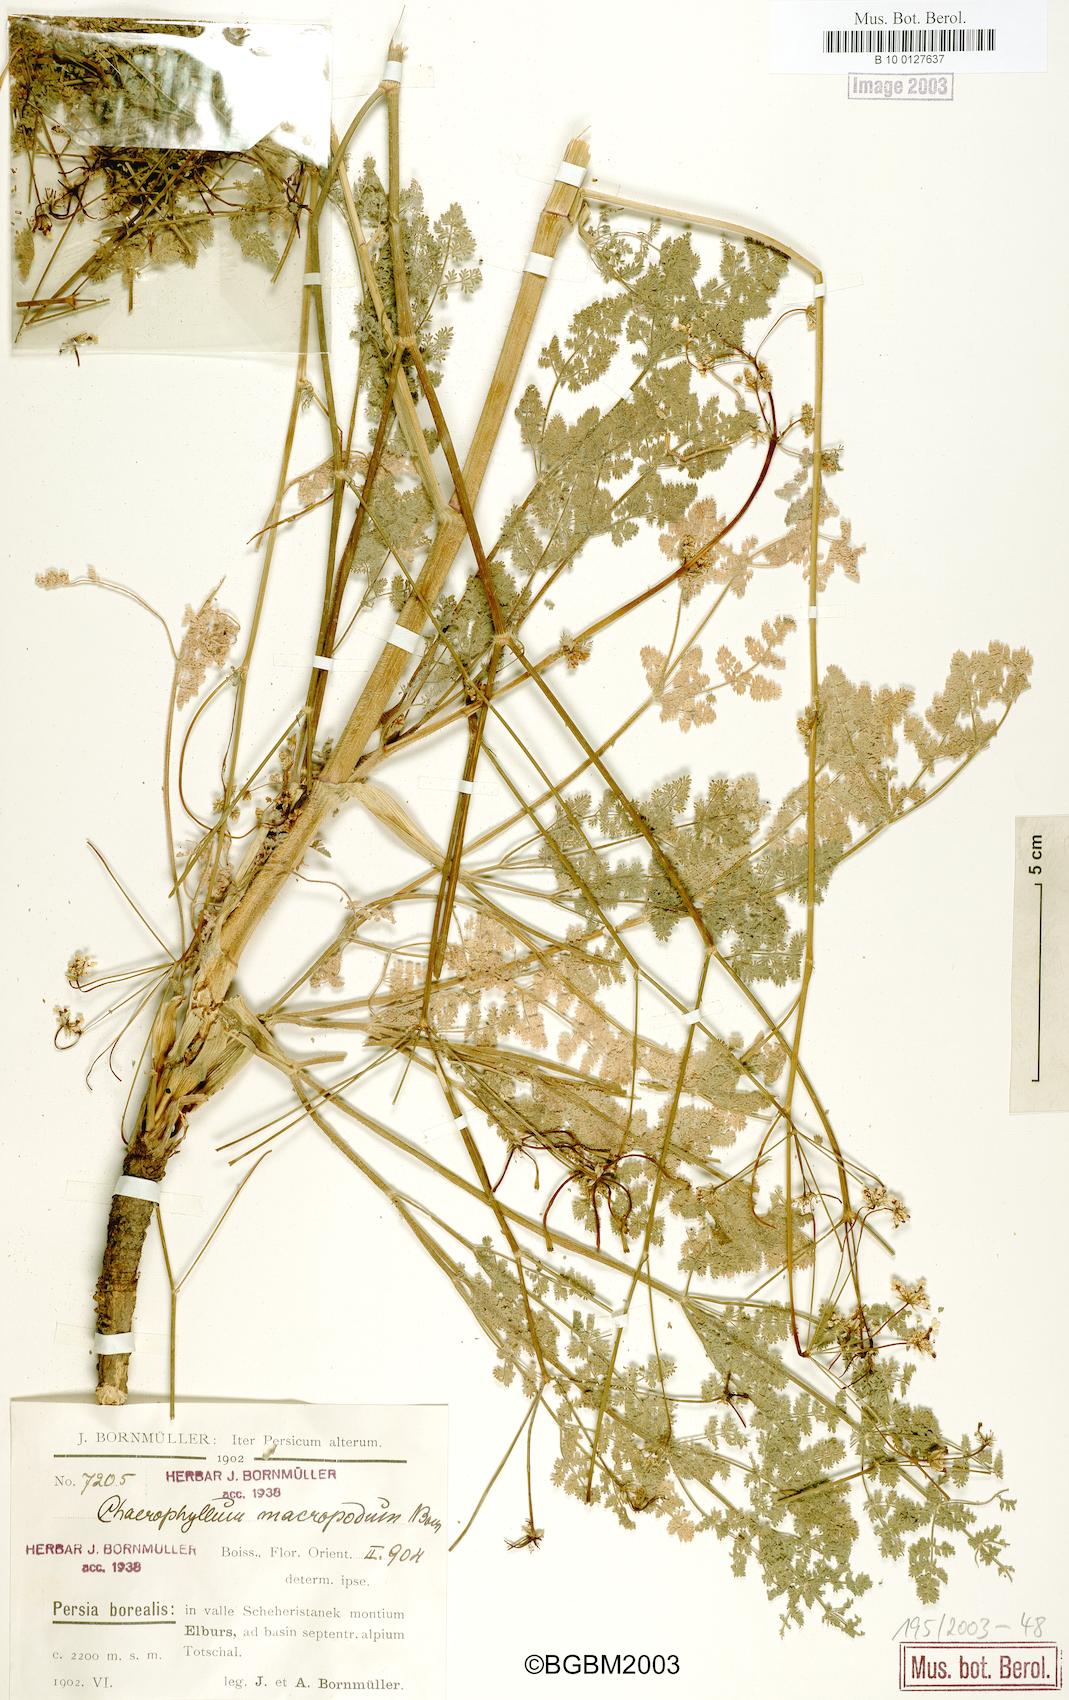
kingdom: Plantae
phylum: Tracheophyta
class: Magnoliopsida
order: Apiales
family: Apiaceae
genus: Chaerophyllum
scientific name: Chaerophyllum macropodum
